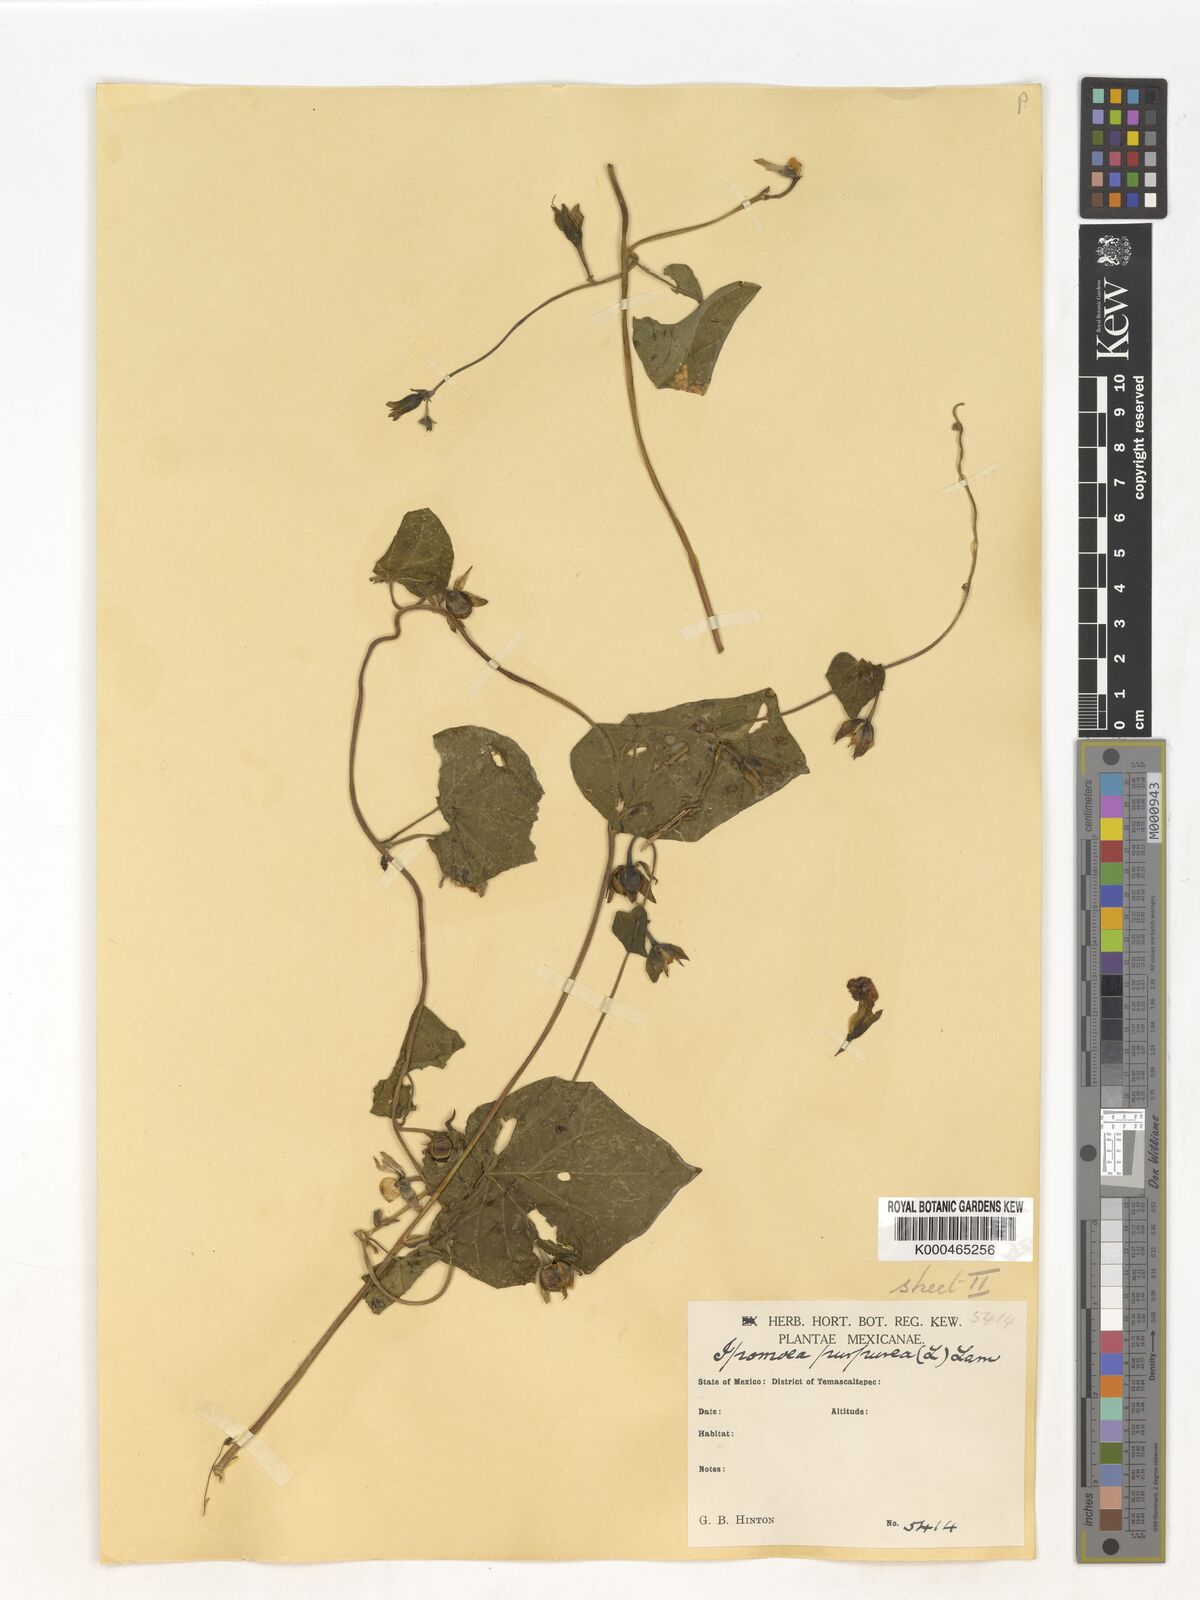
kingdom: Plantae
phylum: Tracheophyta
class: Magnoliopsida
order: Solanales
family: Convolvulaceae
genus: Ipomoea
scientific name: Ipomoea purpurea
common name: Common morning-glory
